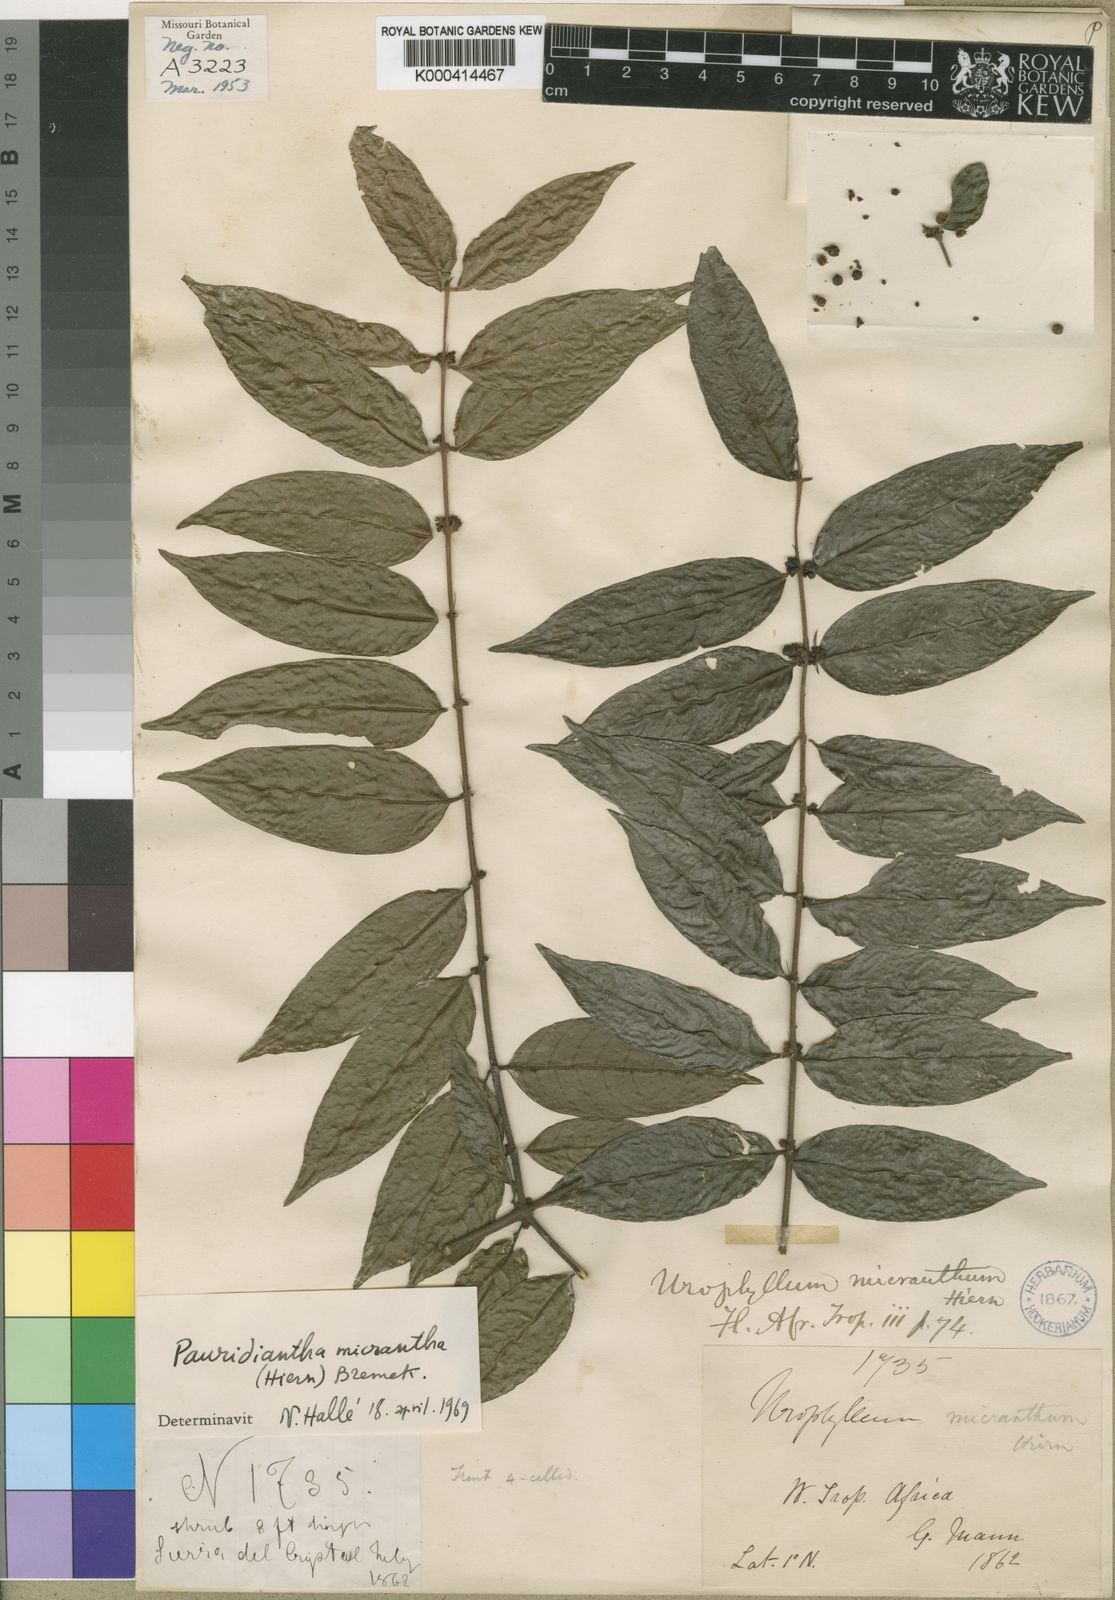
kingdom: Plantae
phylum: Tracheophyta
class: Magnoliopsida
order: Gentianales
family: Rubiaceae
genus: Pauridiantha
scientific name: Pauridiantha micrantha
